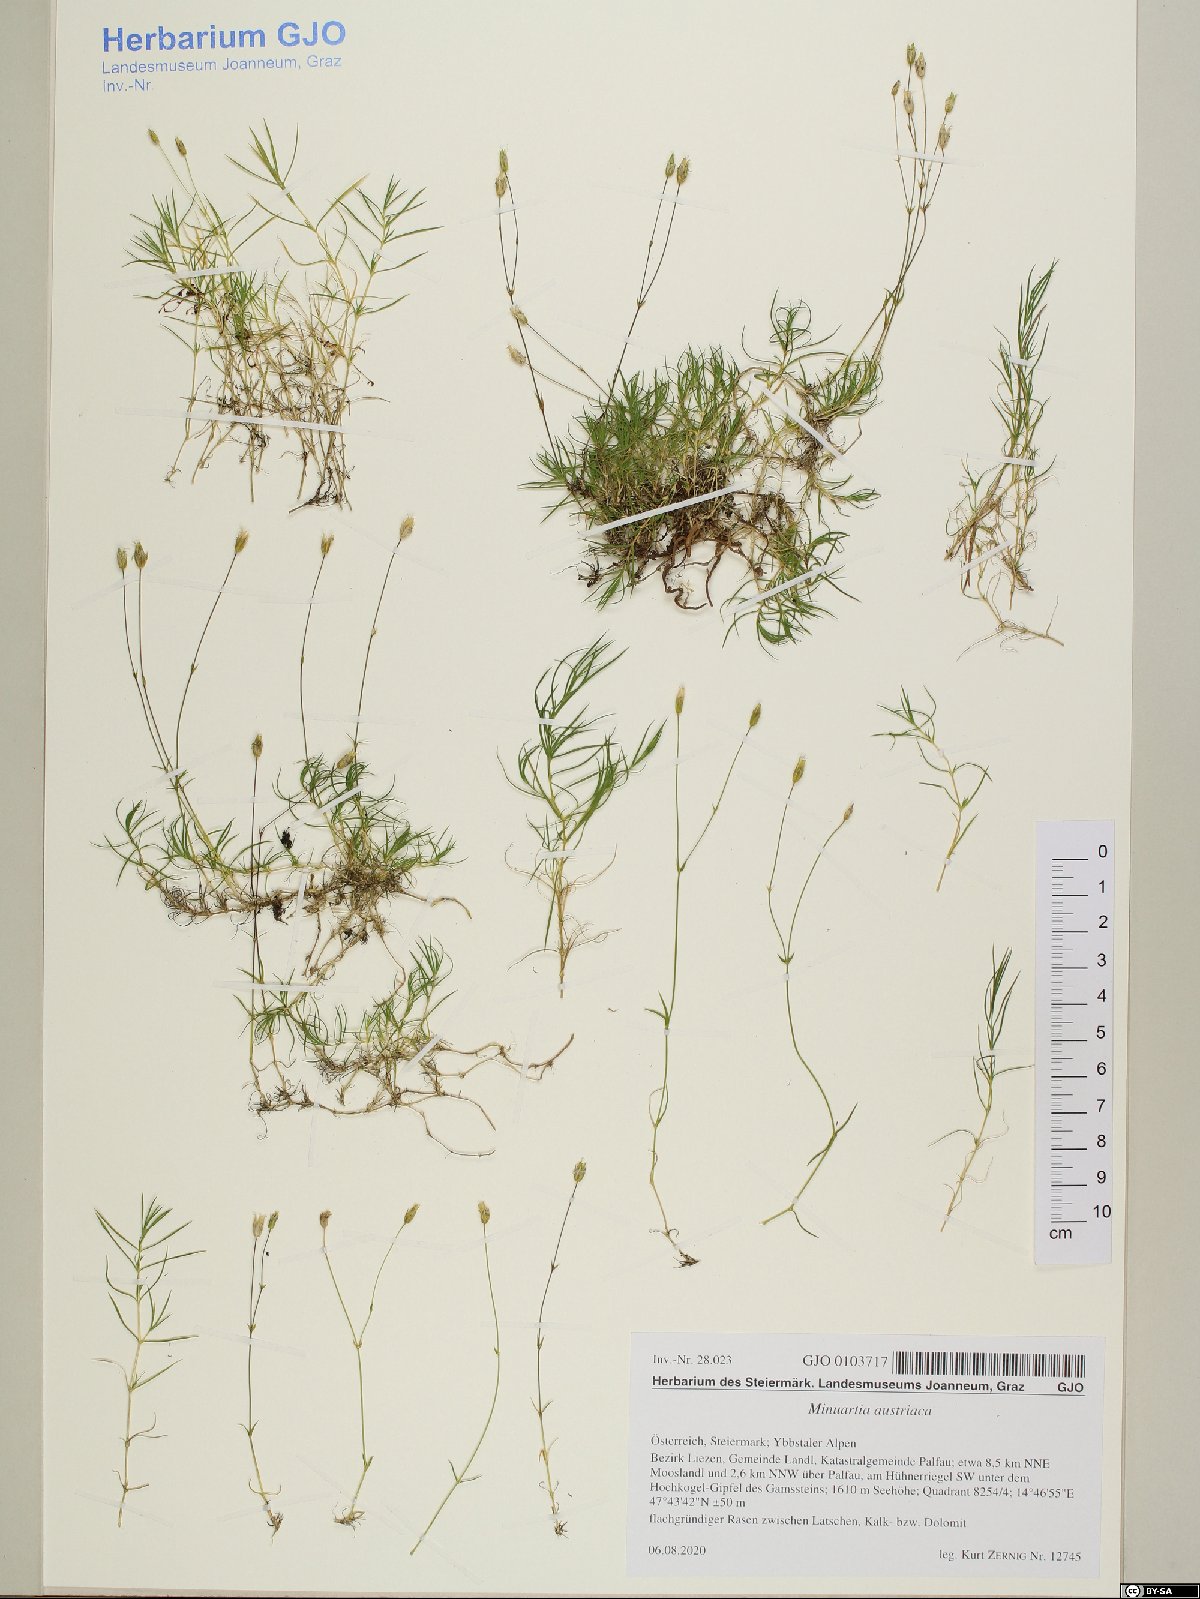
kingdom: Plantae
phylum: Tracheophyta
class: Magnoliopsida
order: Caryophyllales
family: Caryophyllaceae
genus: Sabulina
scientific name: Sabulina austriaca
